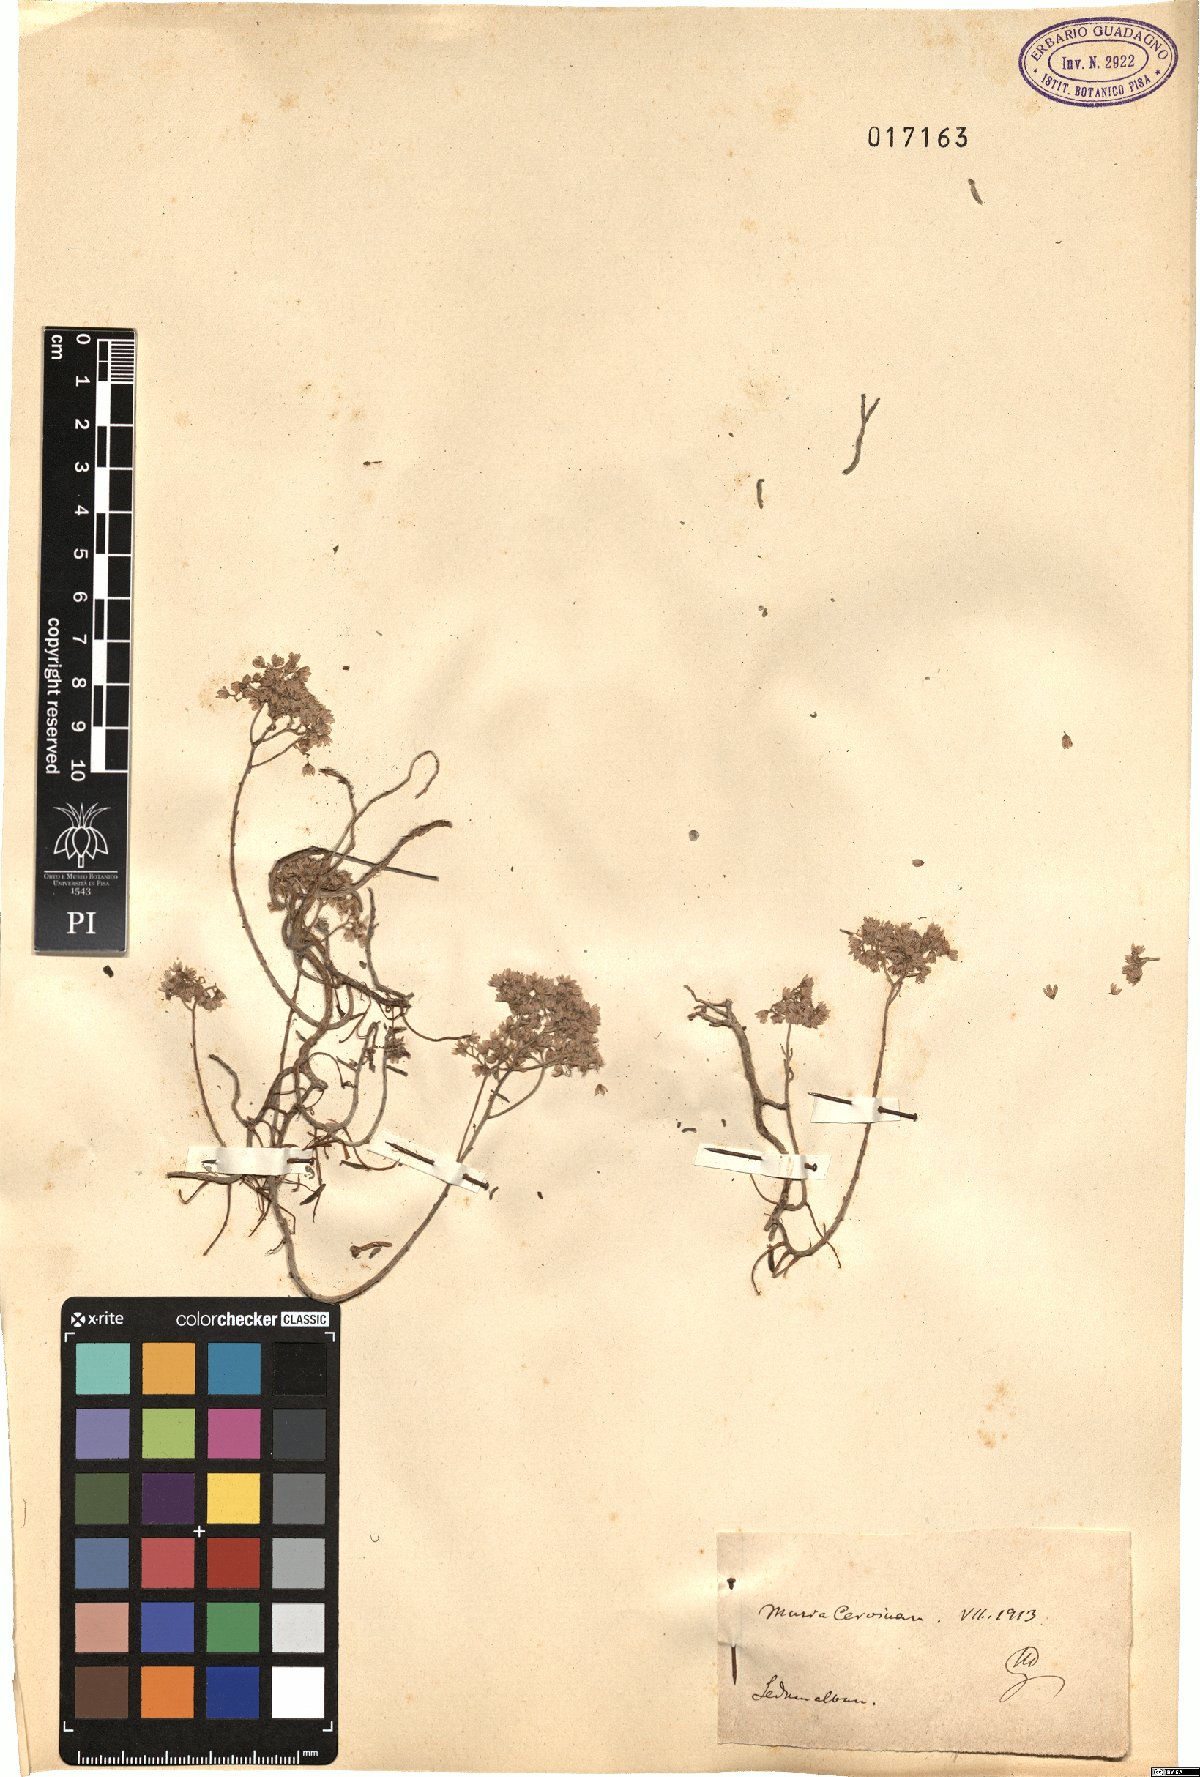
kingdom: Plantae
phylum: Tracheophyta
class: Magnoliopsida
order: Saxifragales
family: Crassulaceae
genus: Sedum
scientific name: Sedum album
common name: White stonecrop
